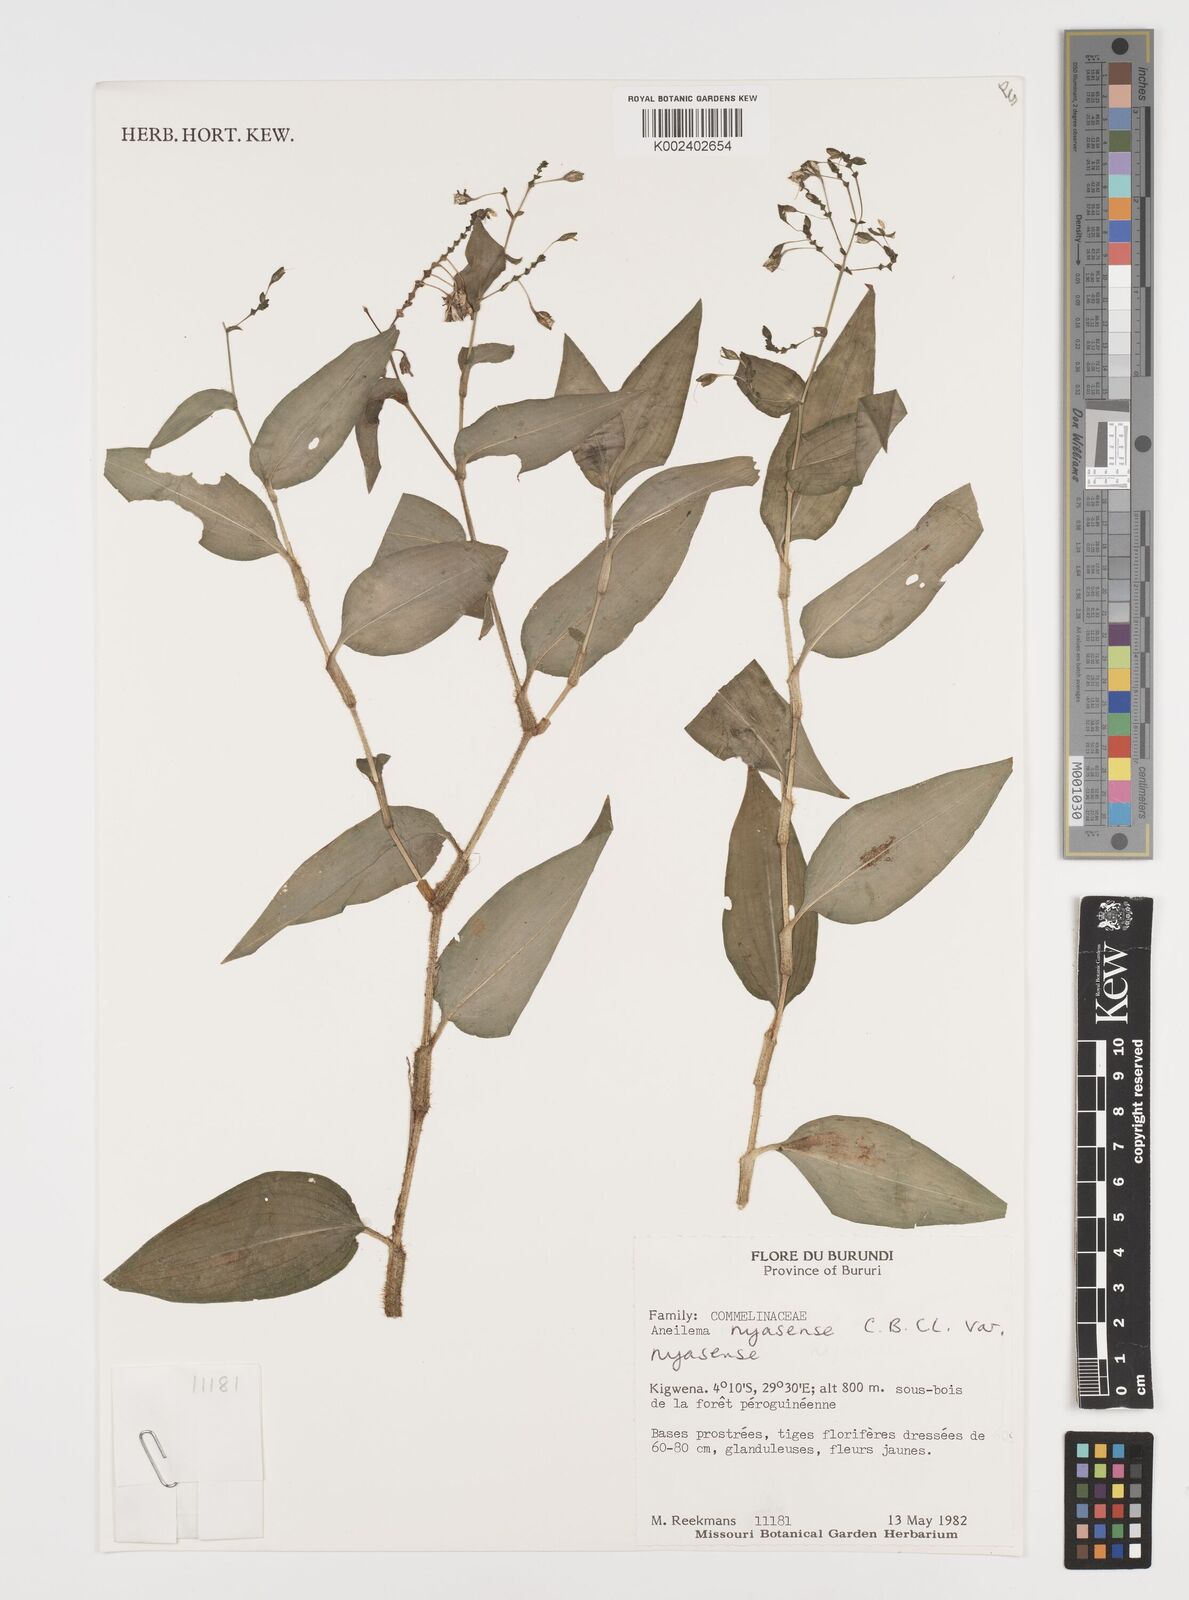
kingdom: Plantae
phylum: Tracheophyta
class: Liliopsida
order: Commelinales
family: Commelinaceae
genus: Aneilema
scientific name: Aneilema nyasense
